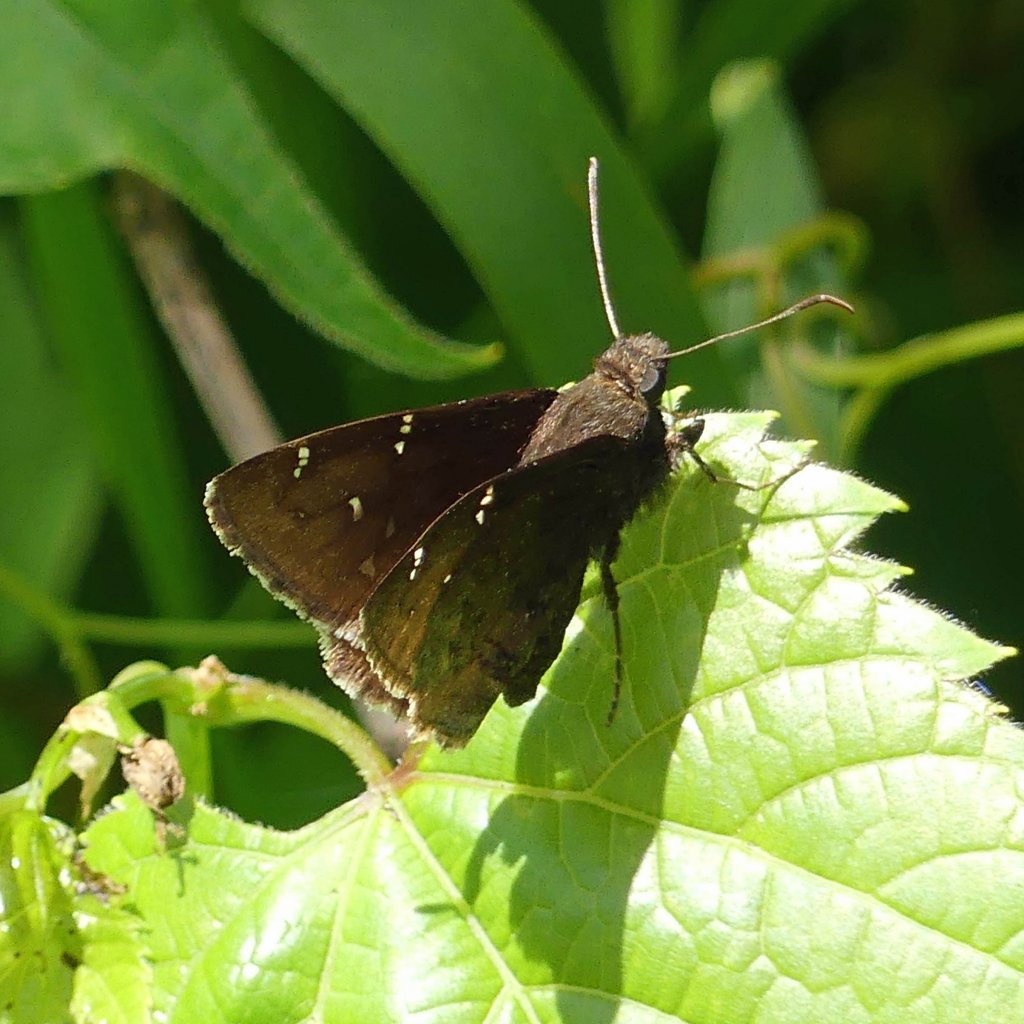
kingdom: Animalia
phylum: Arthropoda
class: Insecta
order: Lepidoptera
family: Hesperiidae
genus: Autochton
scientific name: Autochton
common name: Northern Cloudywing
